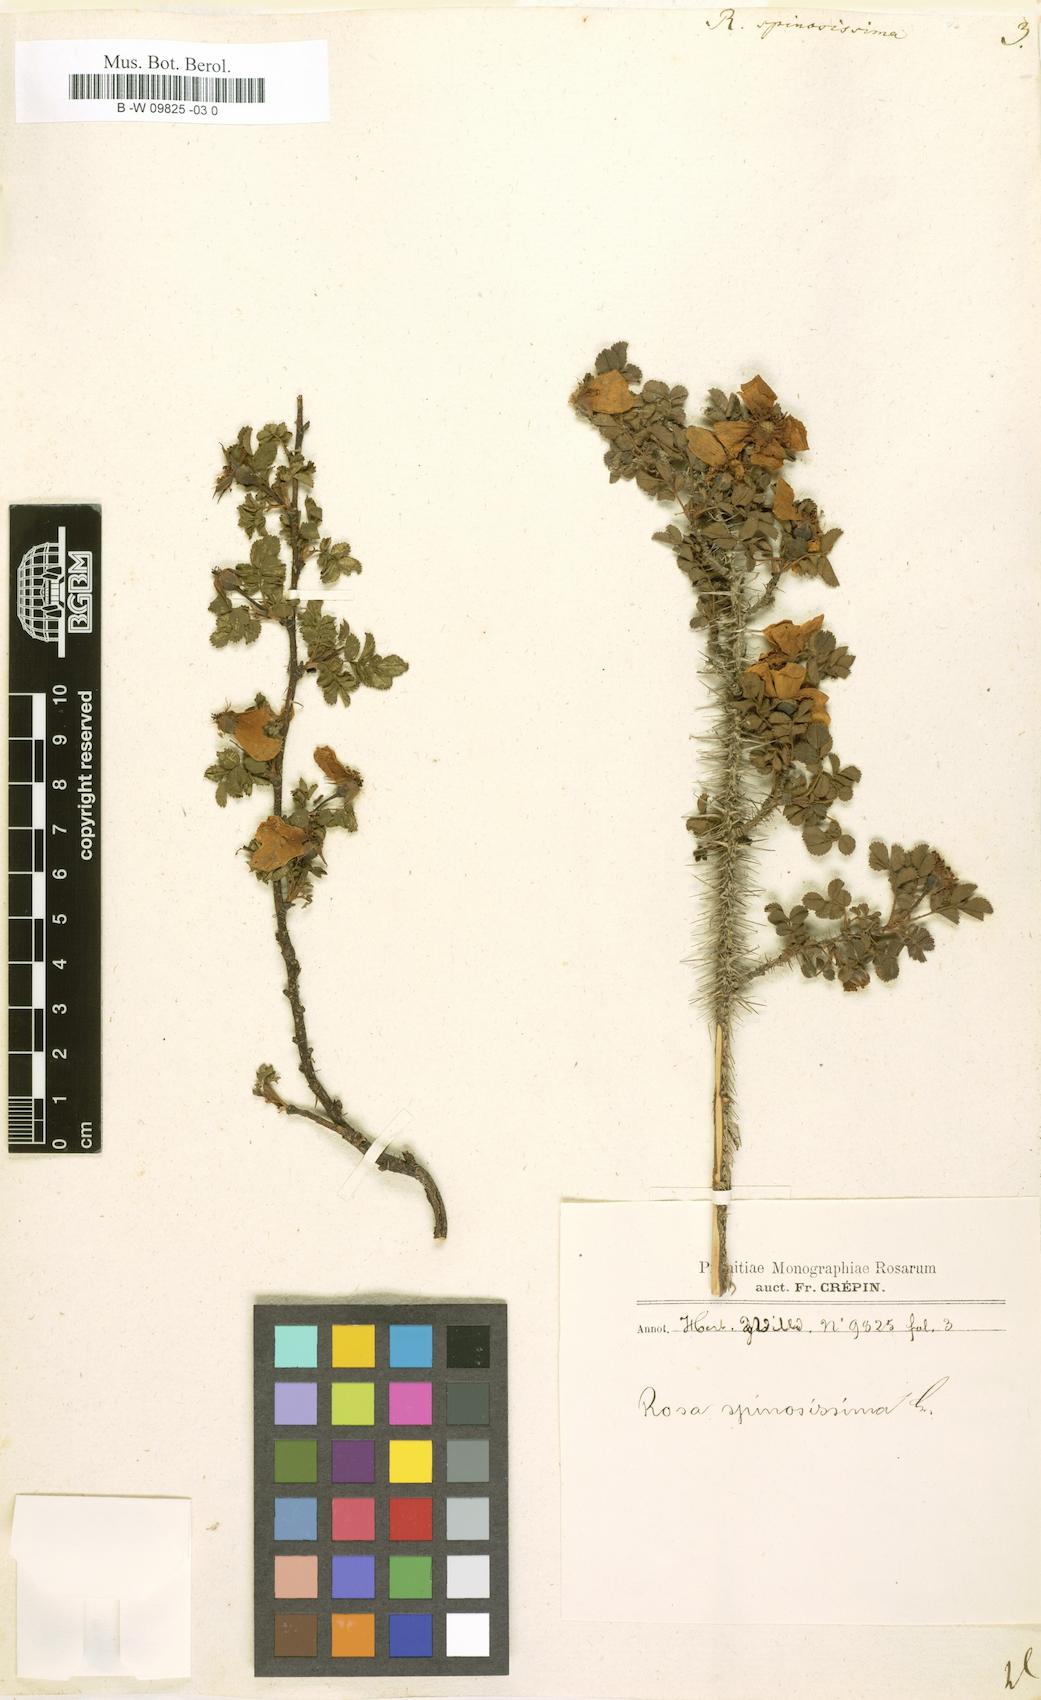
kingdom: Plantae
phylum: Tracheophyta
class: Magnoliopsida
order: Rosales
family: Rosaceae
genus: Rosa
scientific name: Rosa spinosissima
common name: Burnet rose
